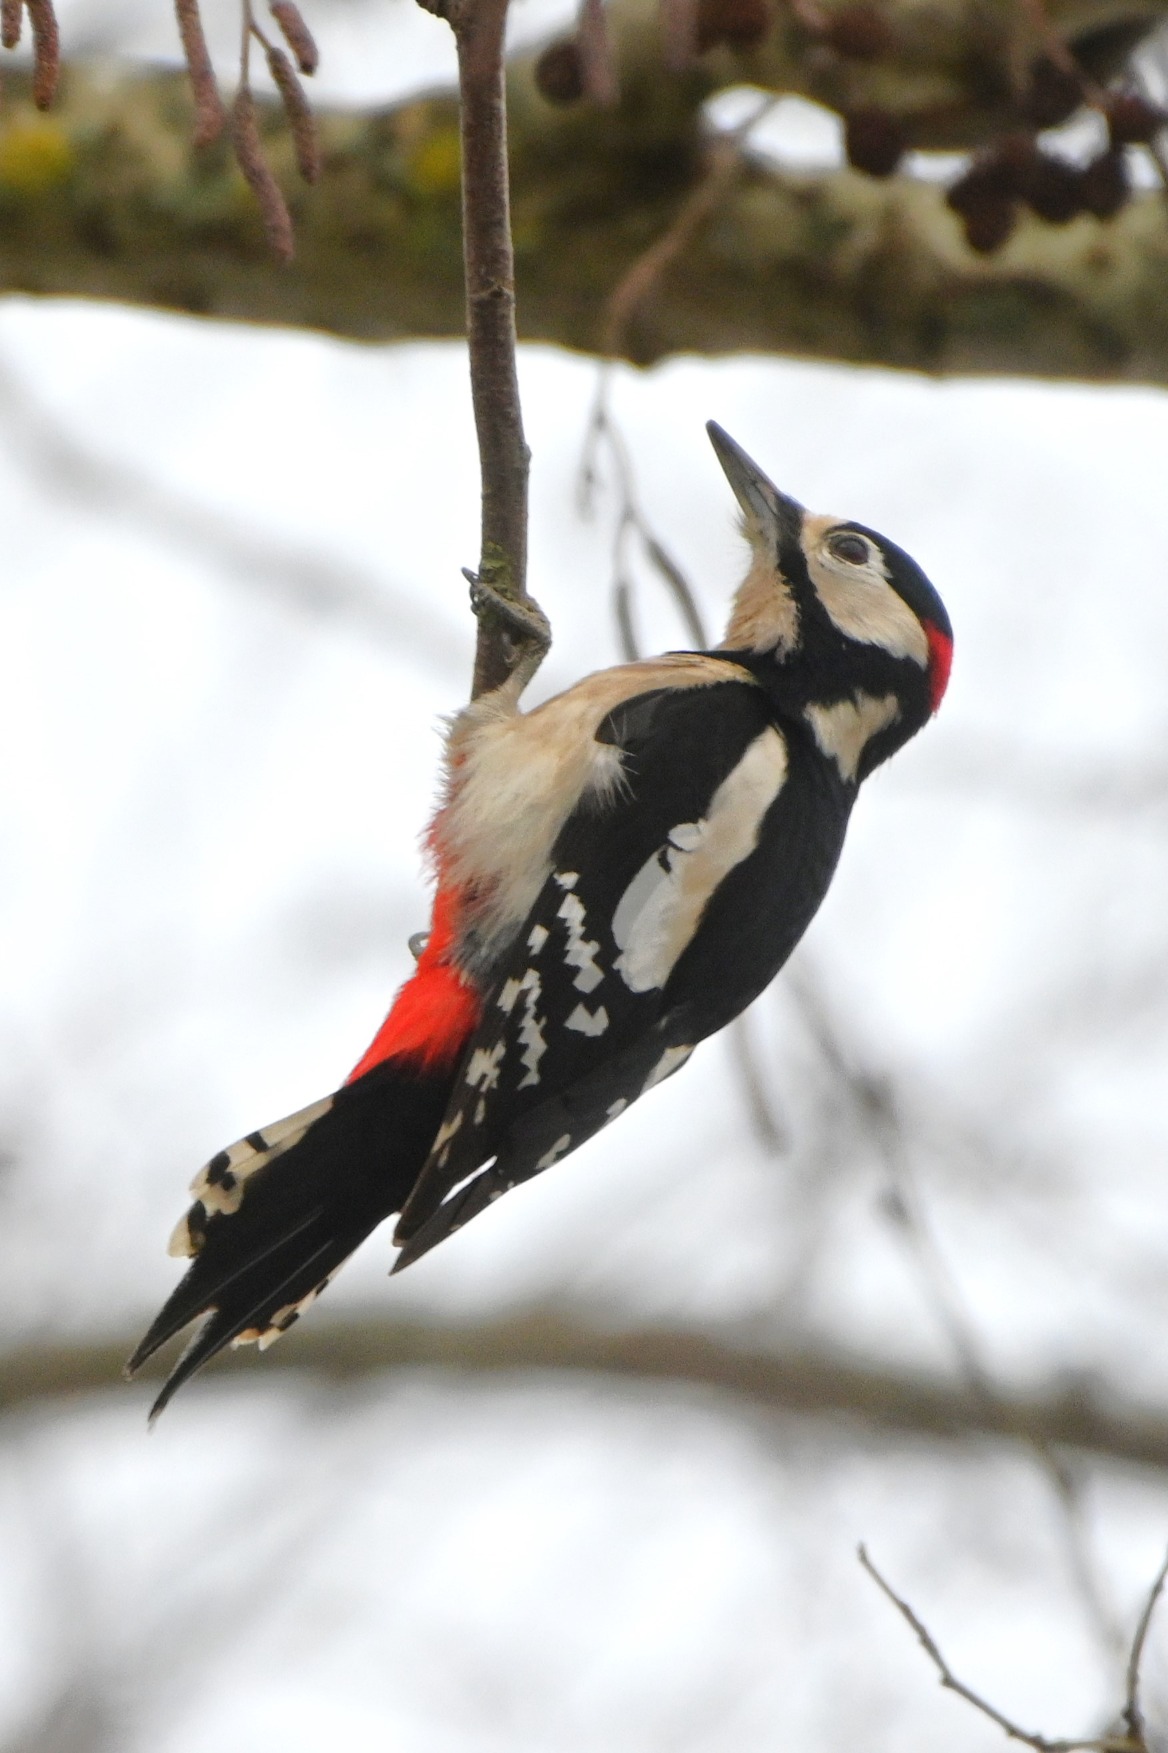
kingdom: Animalia
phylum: Chordata
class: Aves
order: Piciformes
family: Picidae
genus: Dendrocopos
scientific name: Dendrocopos major
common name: Stor flagspætte
